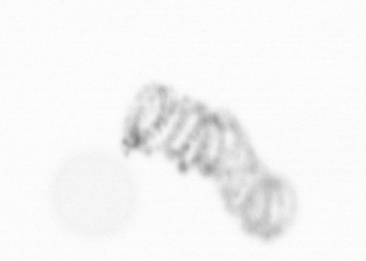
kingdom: Chromista
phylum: Ochrophyta
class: Bacillariophyceae
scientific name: Bacillariophyceae
